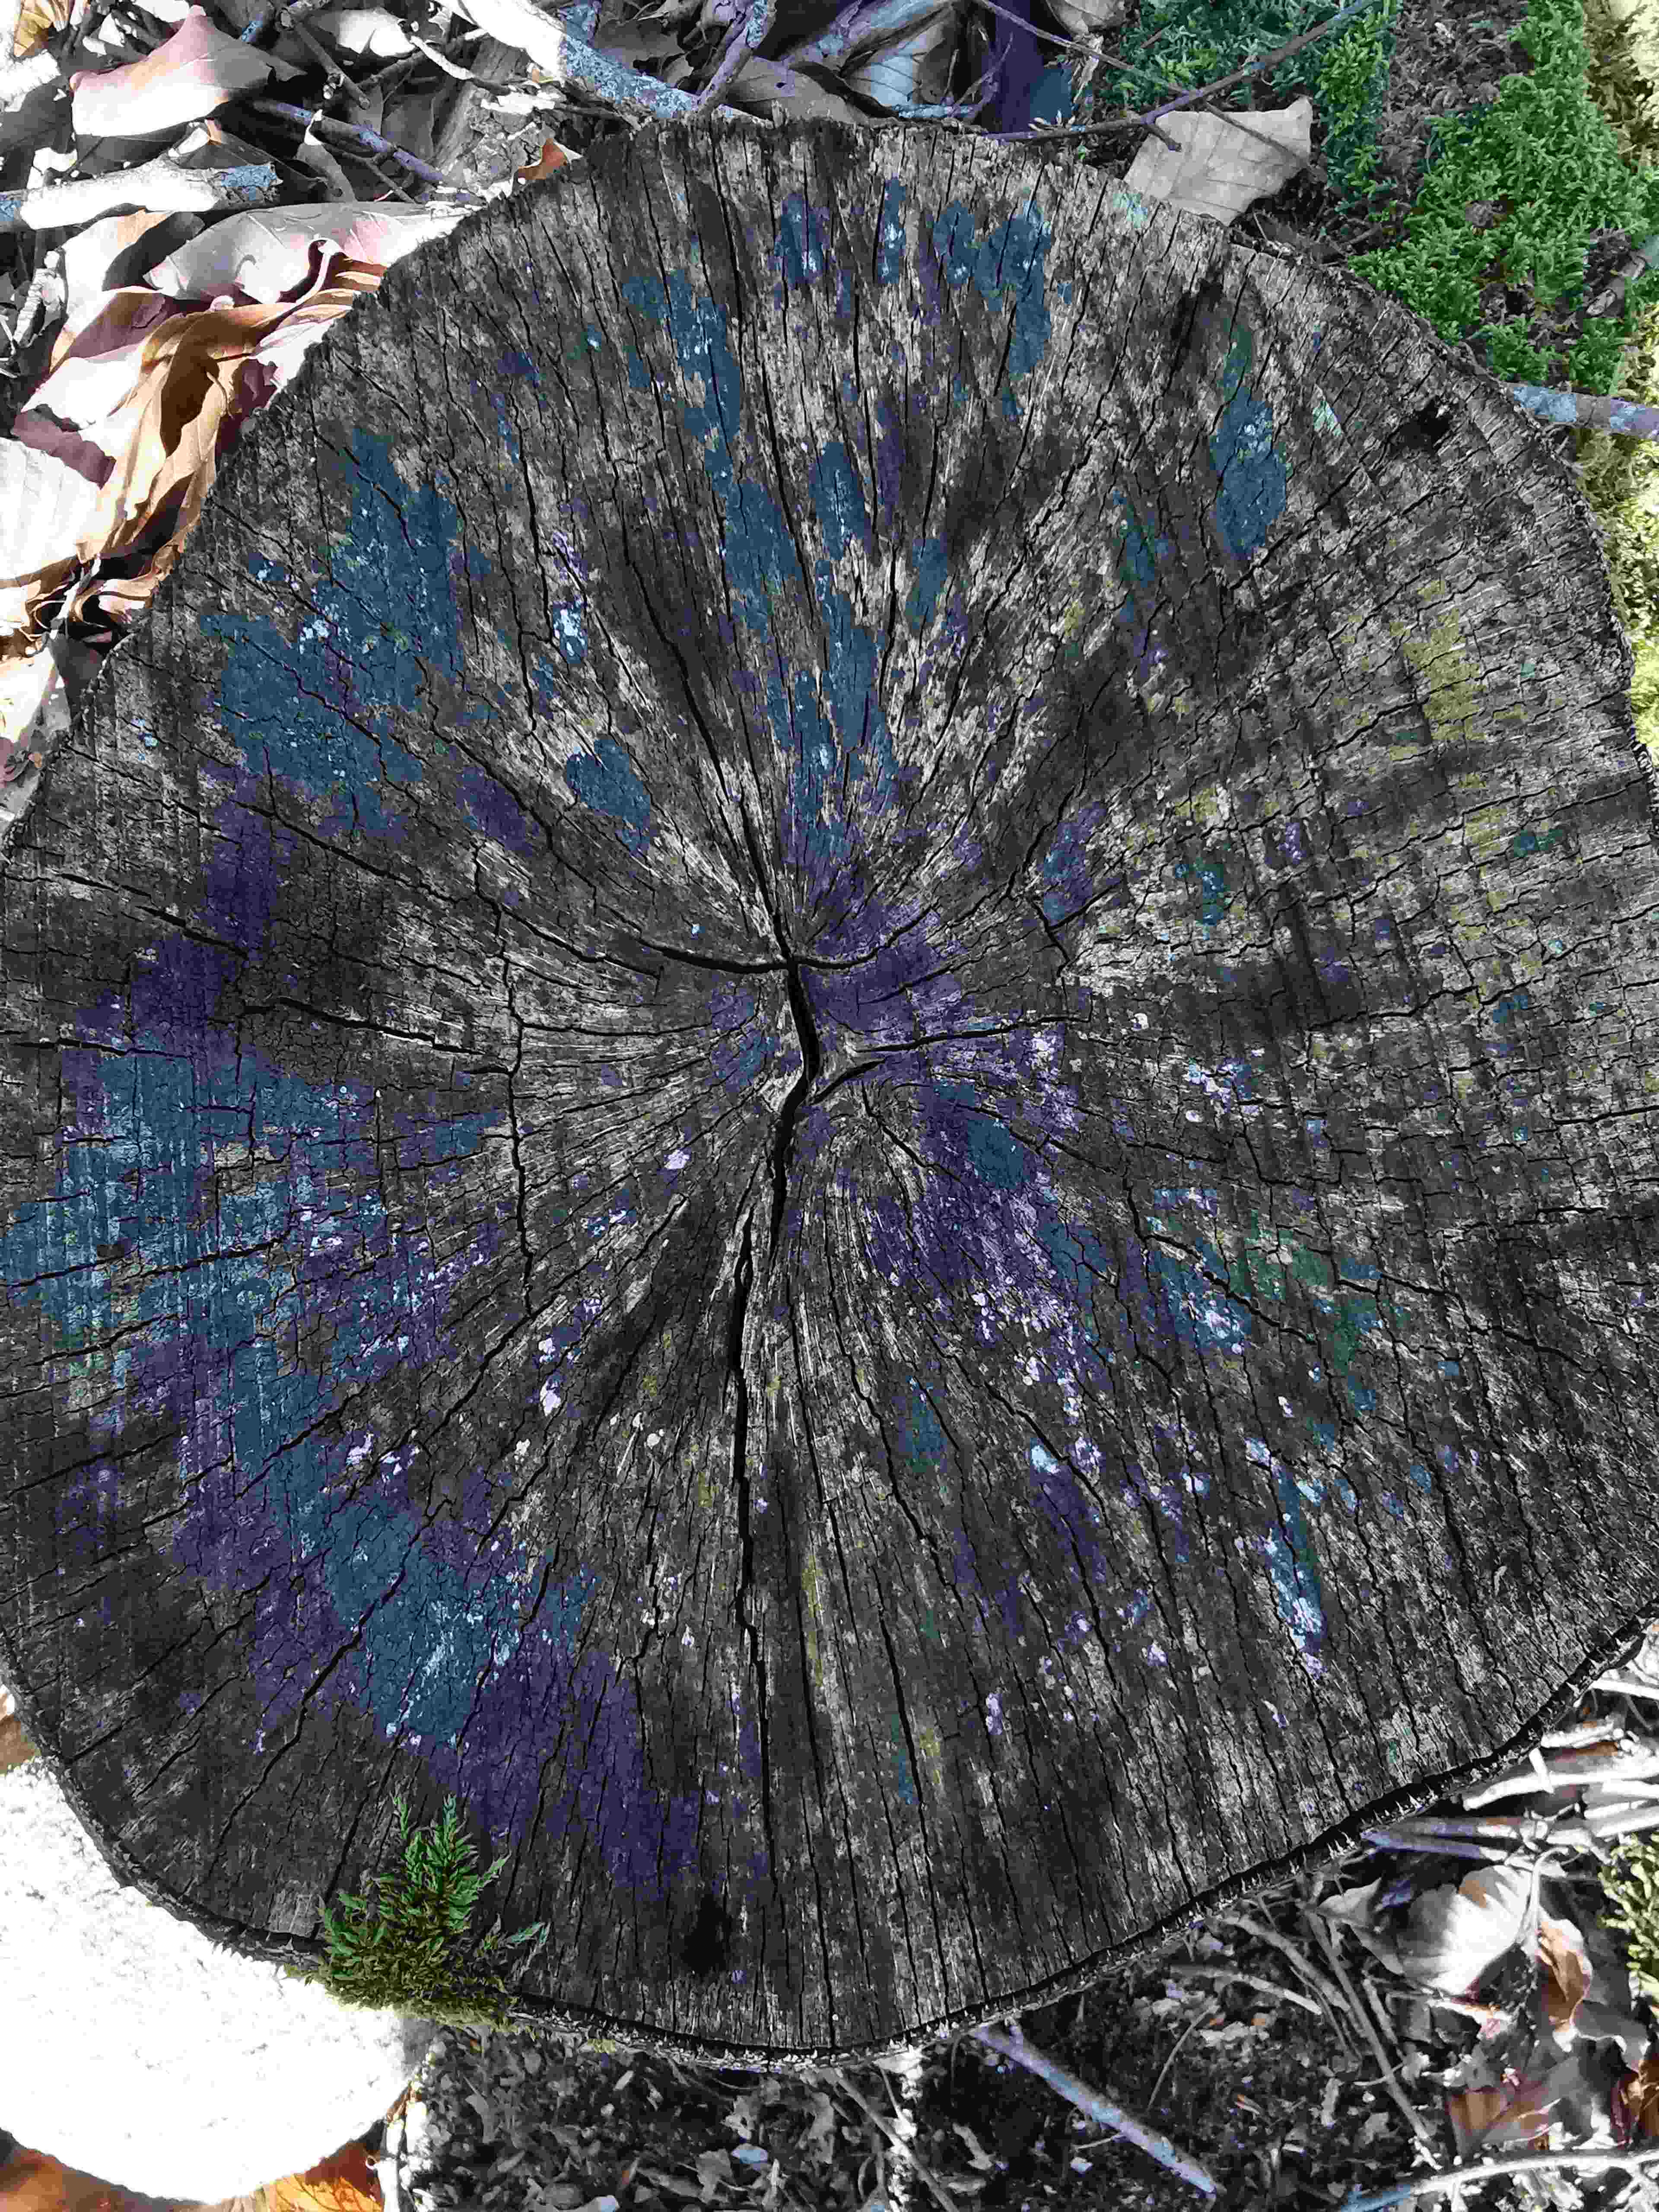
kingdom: Fungi
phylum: Ascomycota
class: Leotiomycetes
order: Helotiales
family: Helotiaceae
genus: Bispora
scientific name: Bispora pallescens
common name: måtte-snitskive
